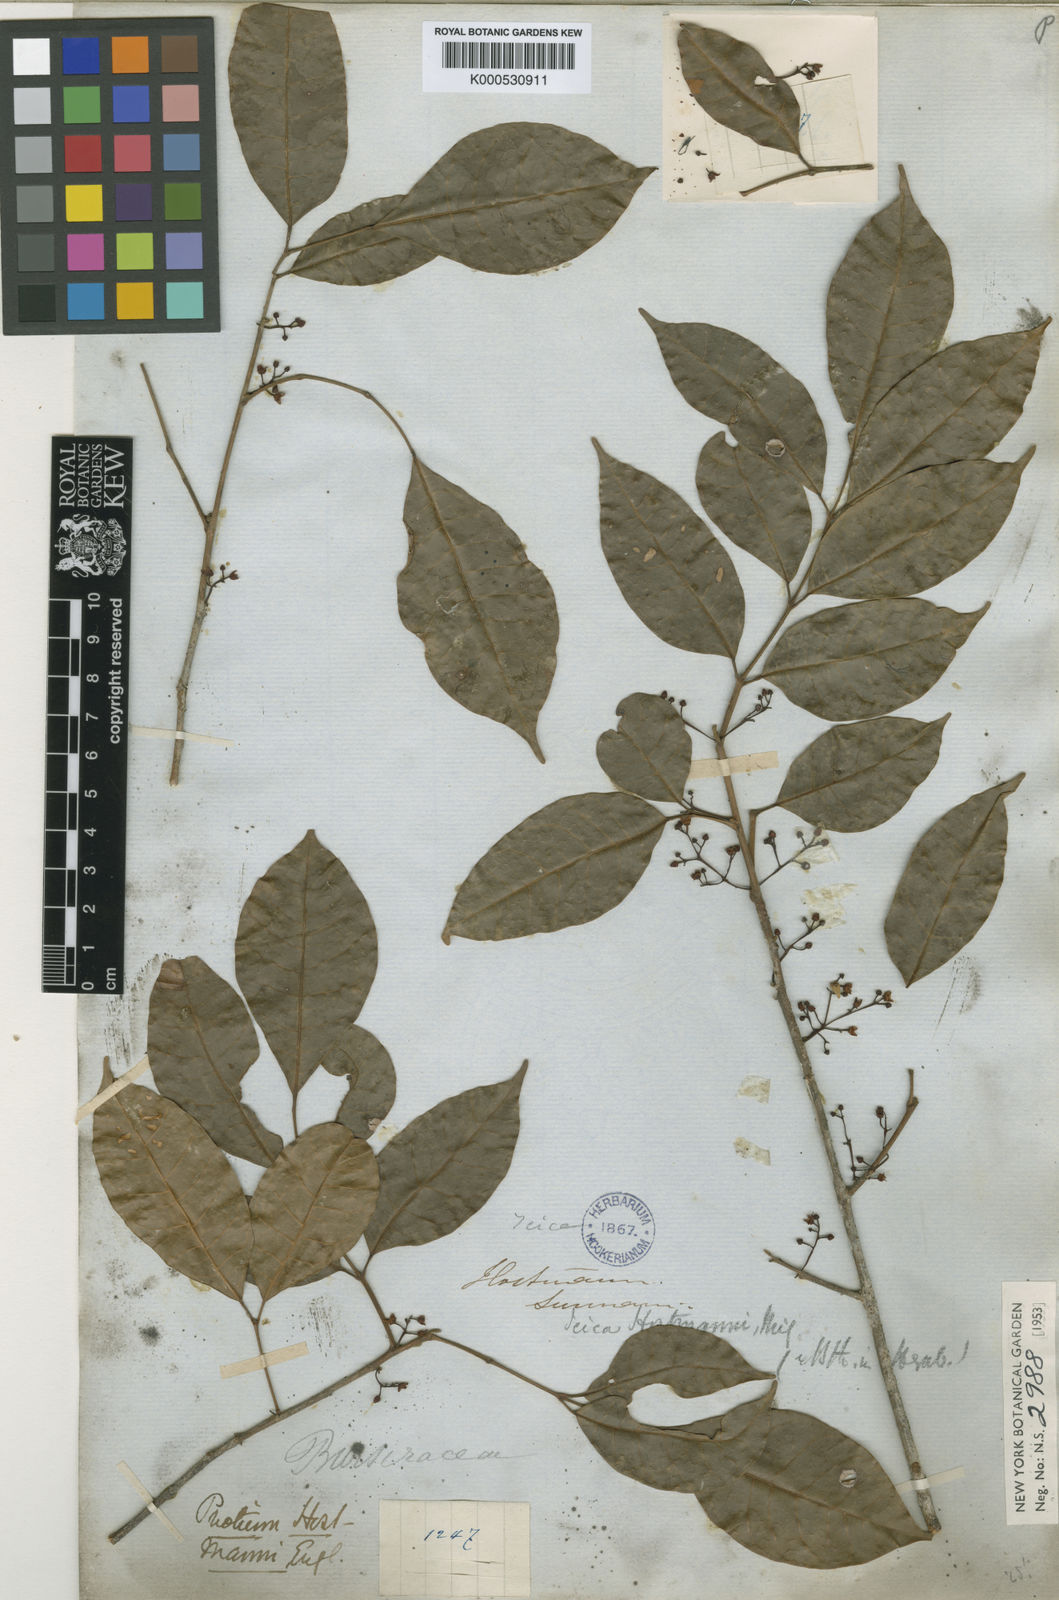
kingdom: Plantae
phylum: Tracheophyta
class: Magnoliopsida
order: Sapindales
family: Burseraceae
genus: Protium
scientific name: Protium guianense
